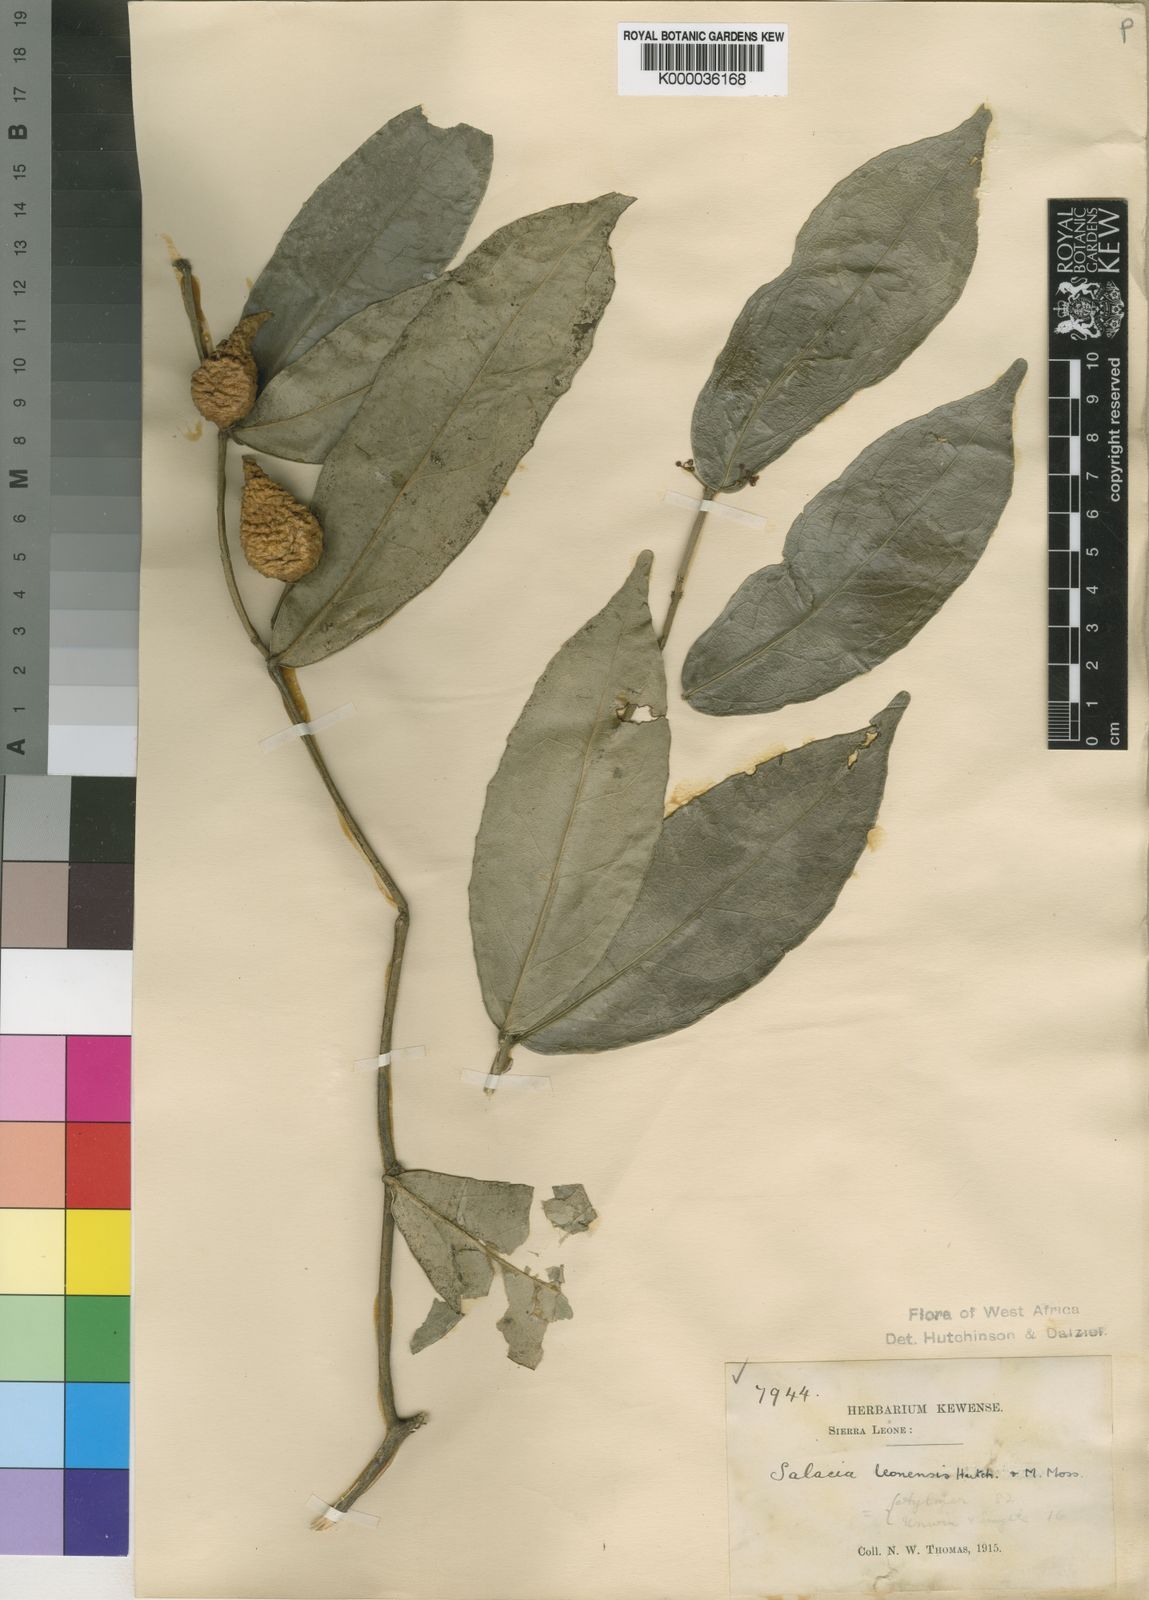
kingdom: Plantae
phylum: Tracheophyta
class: Magnoliopsida
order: Celastrales
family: Celastraceae
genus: Salacia
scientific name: Salacia lehmbachii
